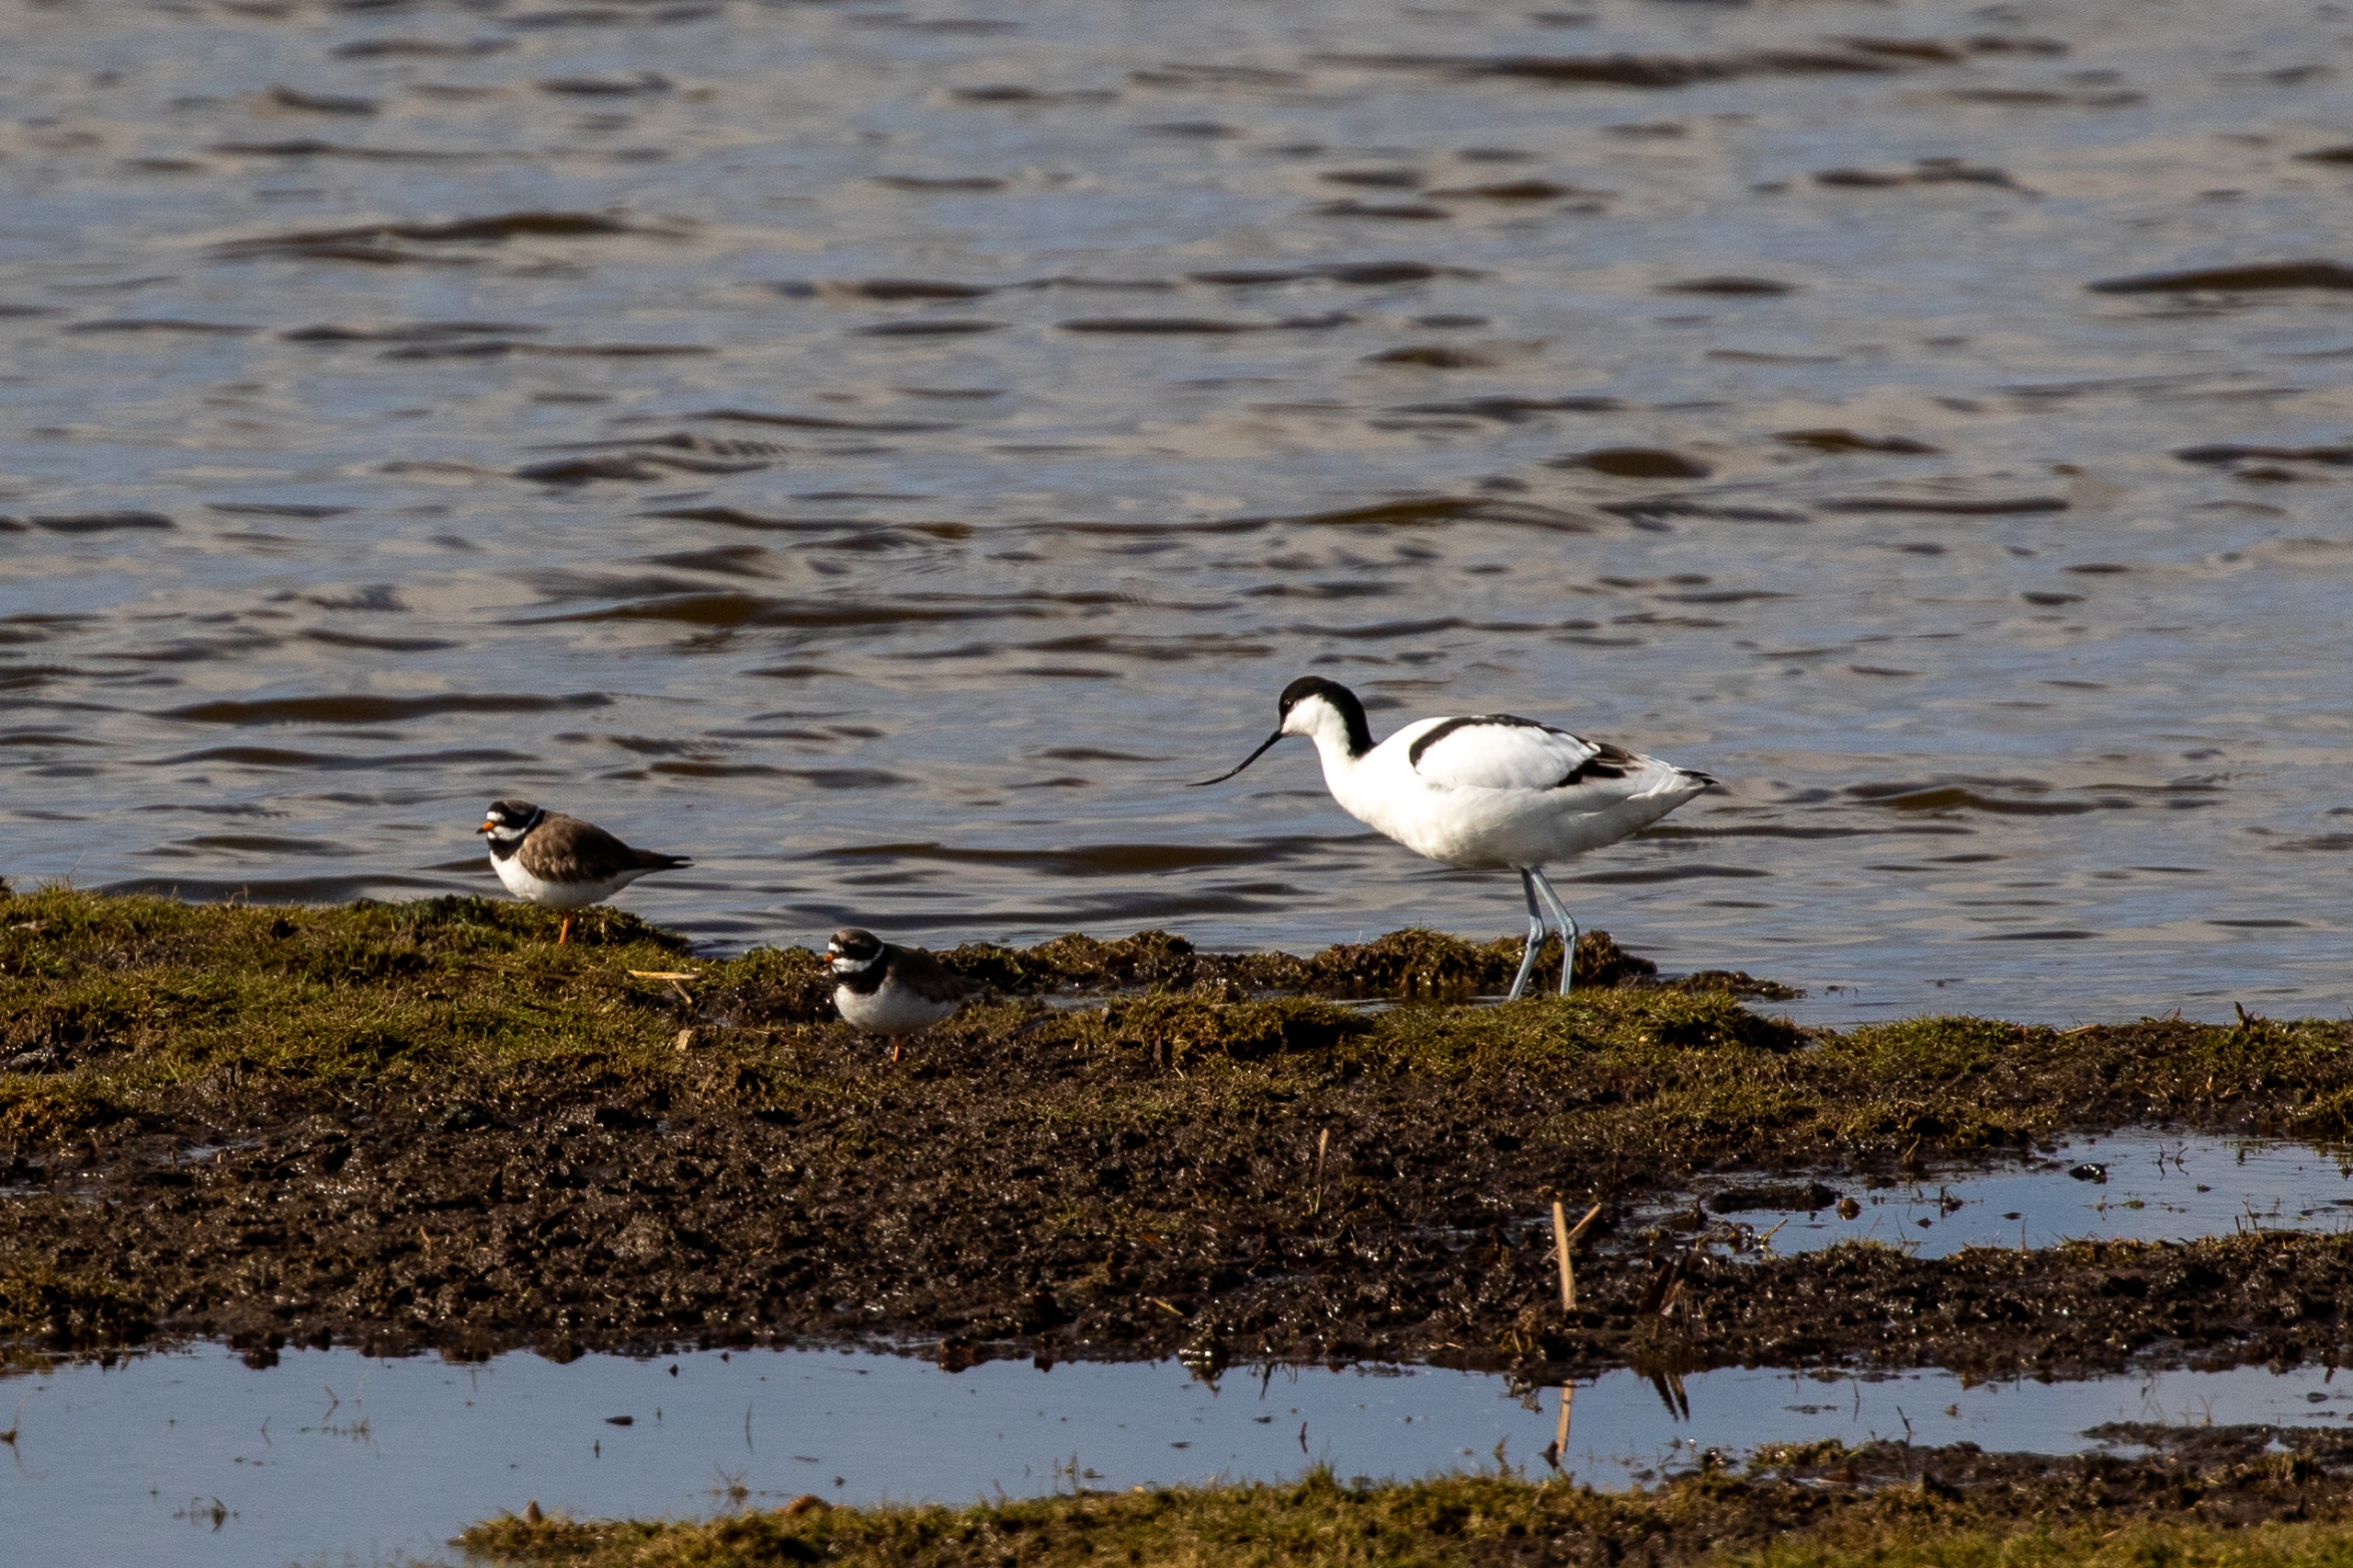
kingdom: Animalia
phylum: Chordata
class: Aves
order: Charadriiformes
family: Charadriidae
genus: Charadrius
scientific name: Charadrius hiaticula
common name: Stor præstekrave
